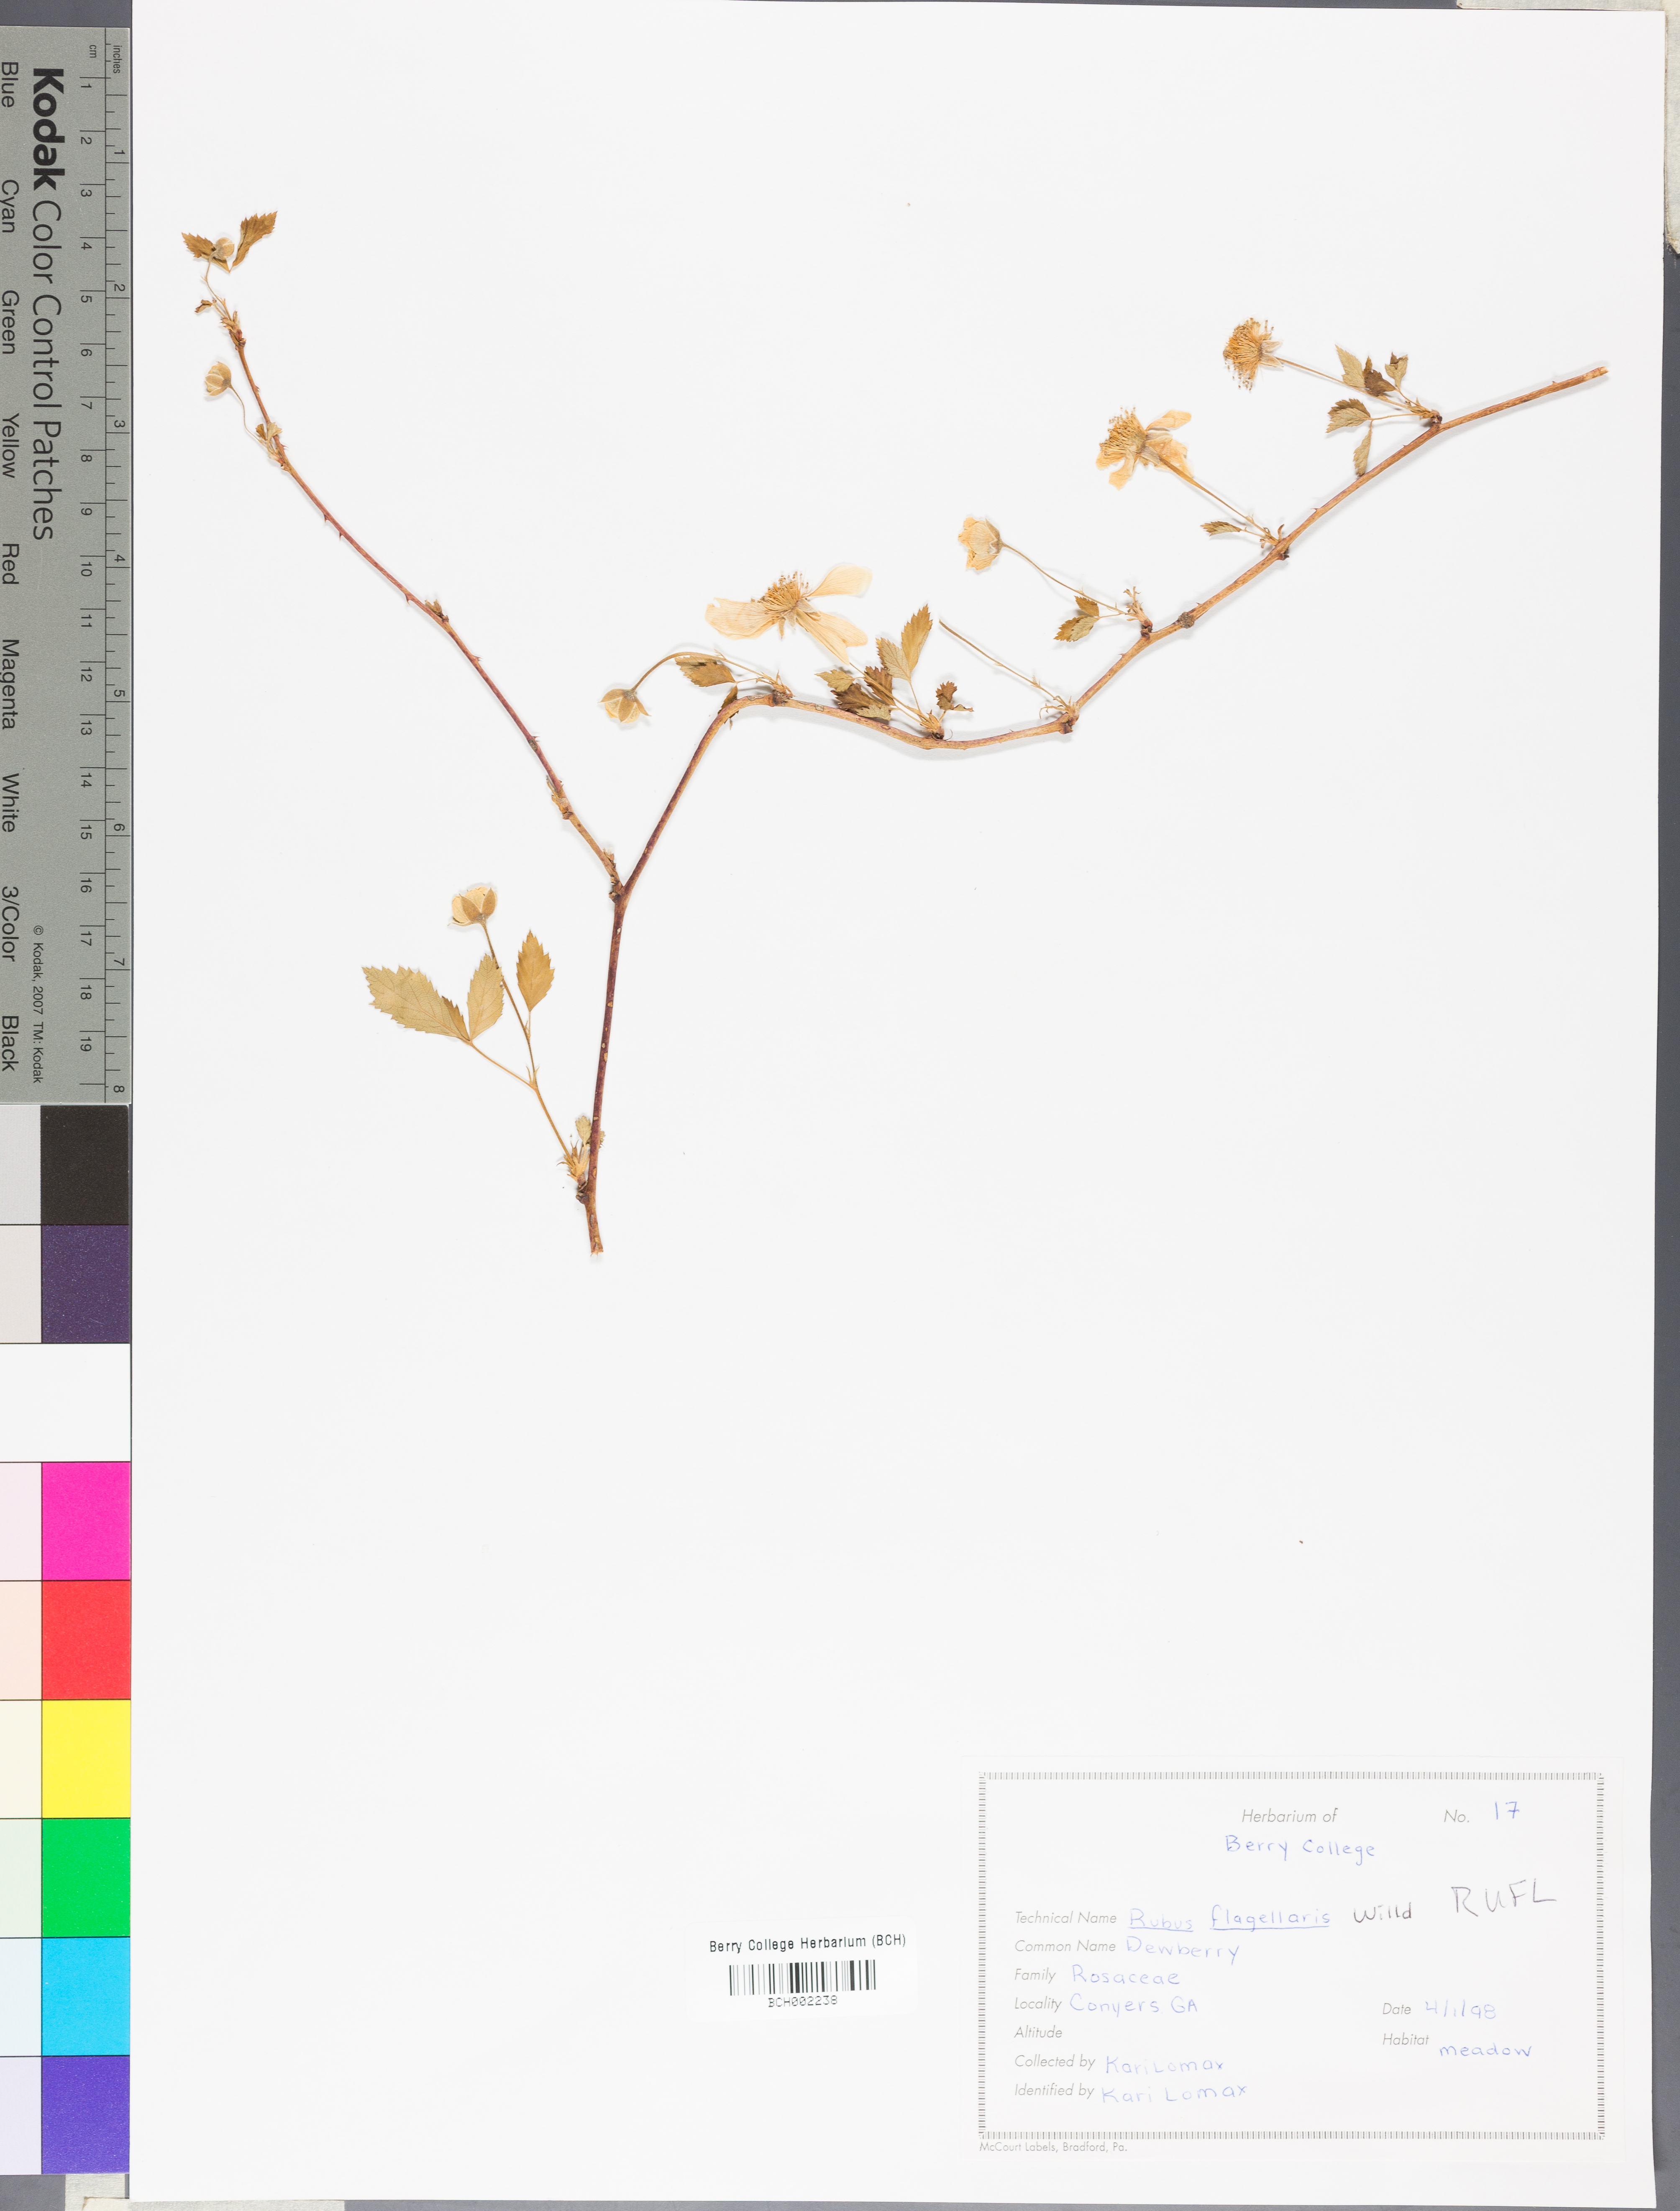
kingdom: Plantae
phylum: Tracheophyta
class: Magnoliopsida
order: Rosales
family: Rosaceae
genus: Rubus
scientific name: Rubus flagellaris
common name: American dewberry
